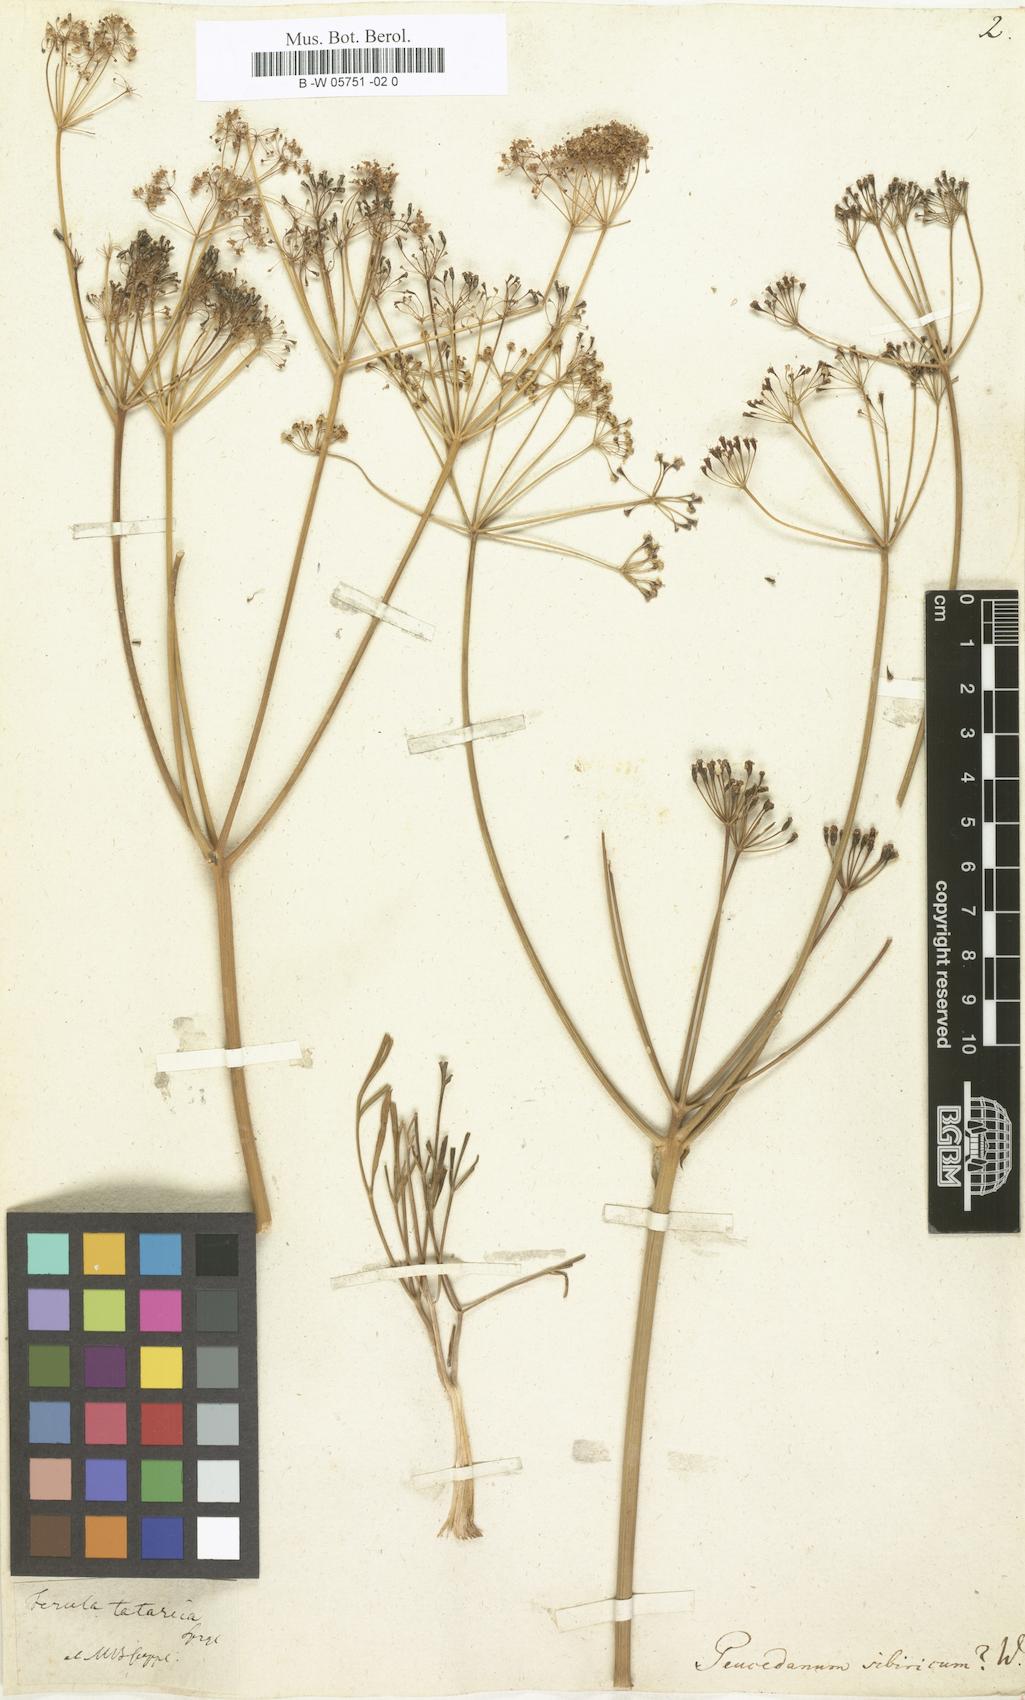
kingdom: Plantae
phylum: Tracheophyta
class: Magnoliopsida
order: Apiales
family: Apiaceae
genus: Ferula
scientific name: Ferula
